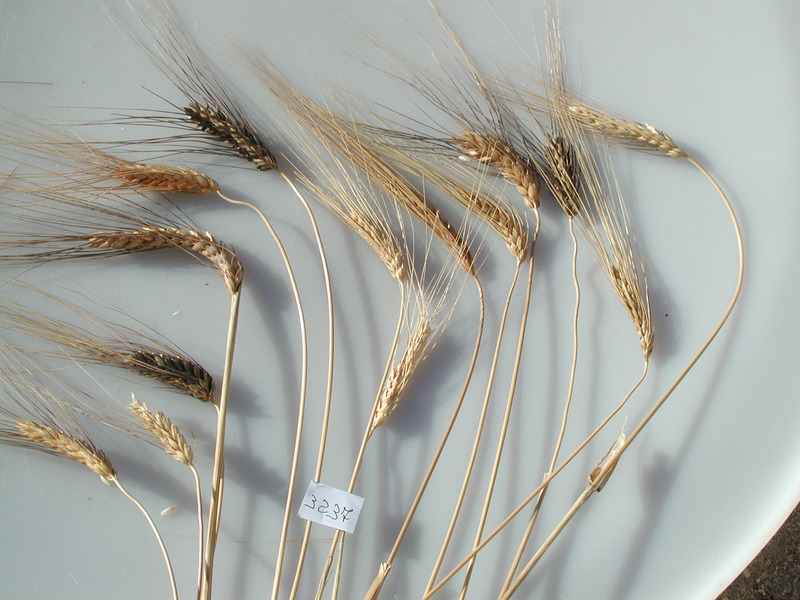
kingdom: Plantae
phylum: Tracheophyta
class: Liliopsida
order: Poales
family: Poaceae
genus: Triticum
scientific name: Triticum turgidum
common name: Wheat
